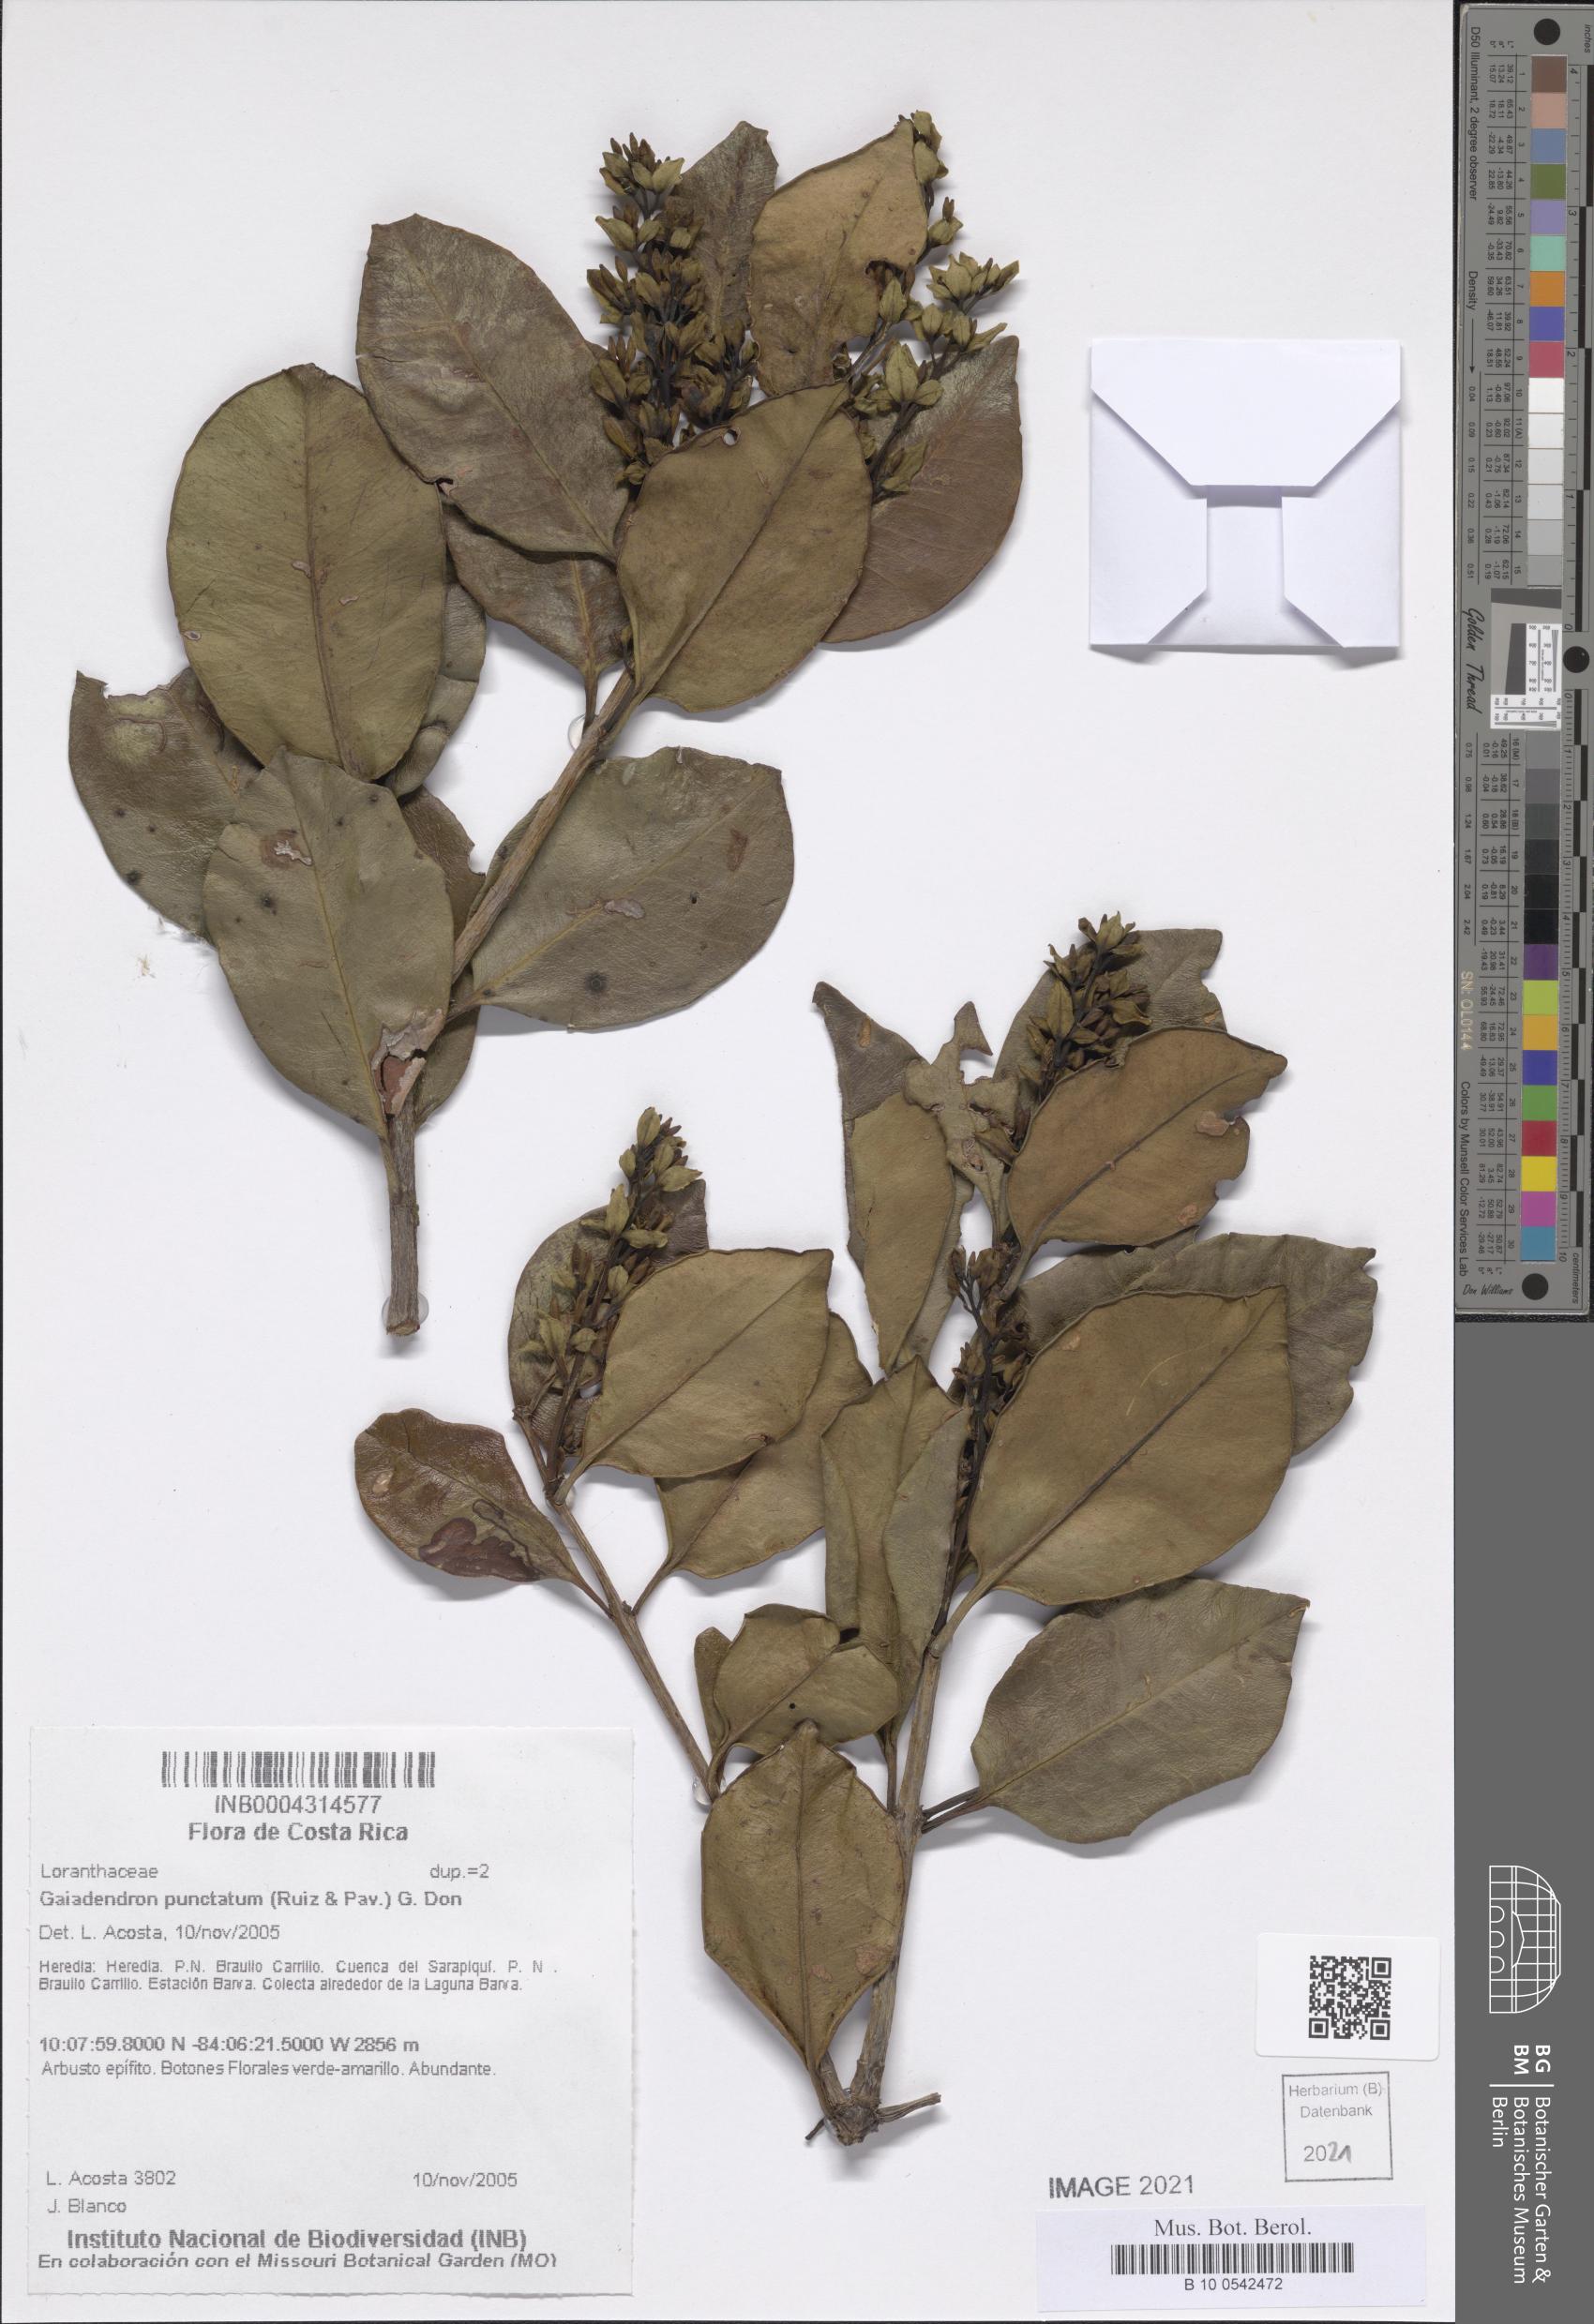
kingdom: Plantae
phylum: Tracheophyta
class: Magnoliopsida
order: Santalales
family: Loranthaceae
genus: Gaiadendron
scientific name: Gaiadendron punctatum
